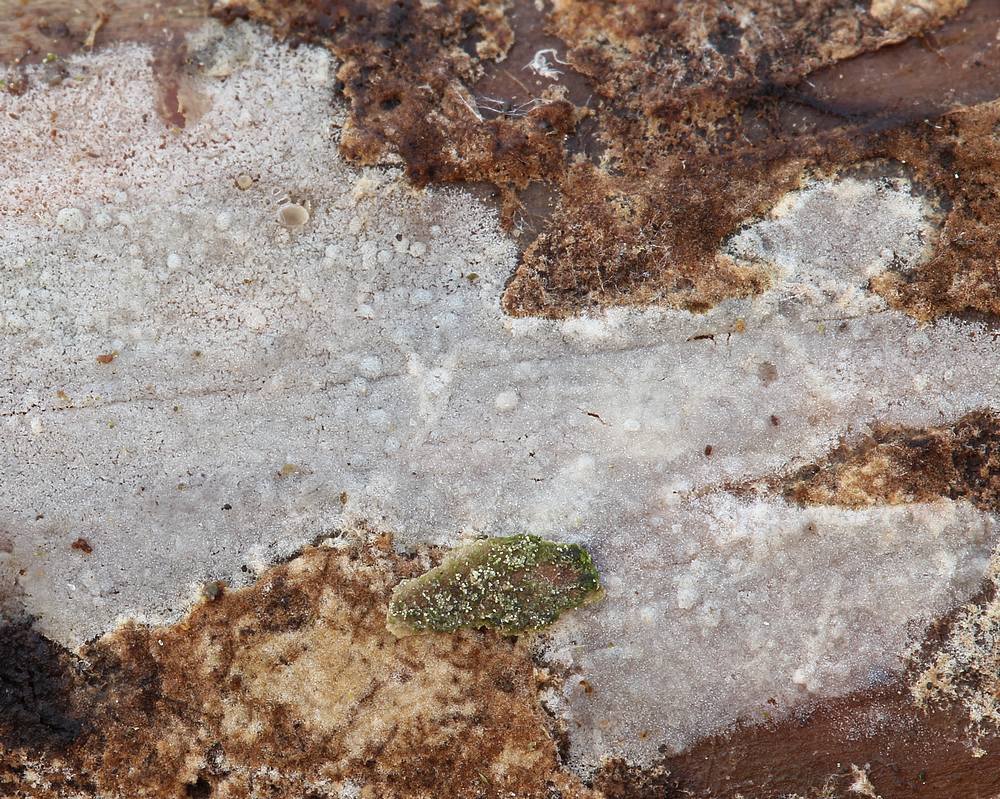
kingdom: Fungi
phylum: Basidiomycota
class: Agaricomycetes
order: Hymenochaetales
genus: Kurtia
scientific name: Kurtia argillacea
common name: Kurts kalkskind
